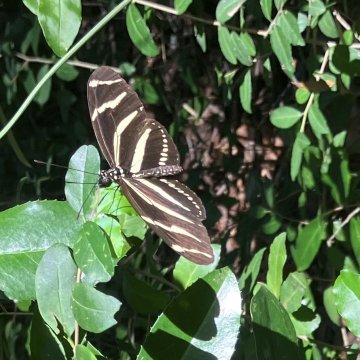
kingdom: Animalia
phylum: Arthropoda
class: Insecta
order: Lepidoptera
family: Nymphalidae
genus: Heliconius
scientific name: Heliconius charithonia
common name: Zebra Longwing
